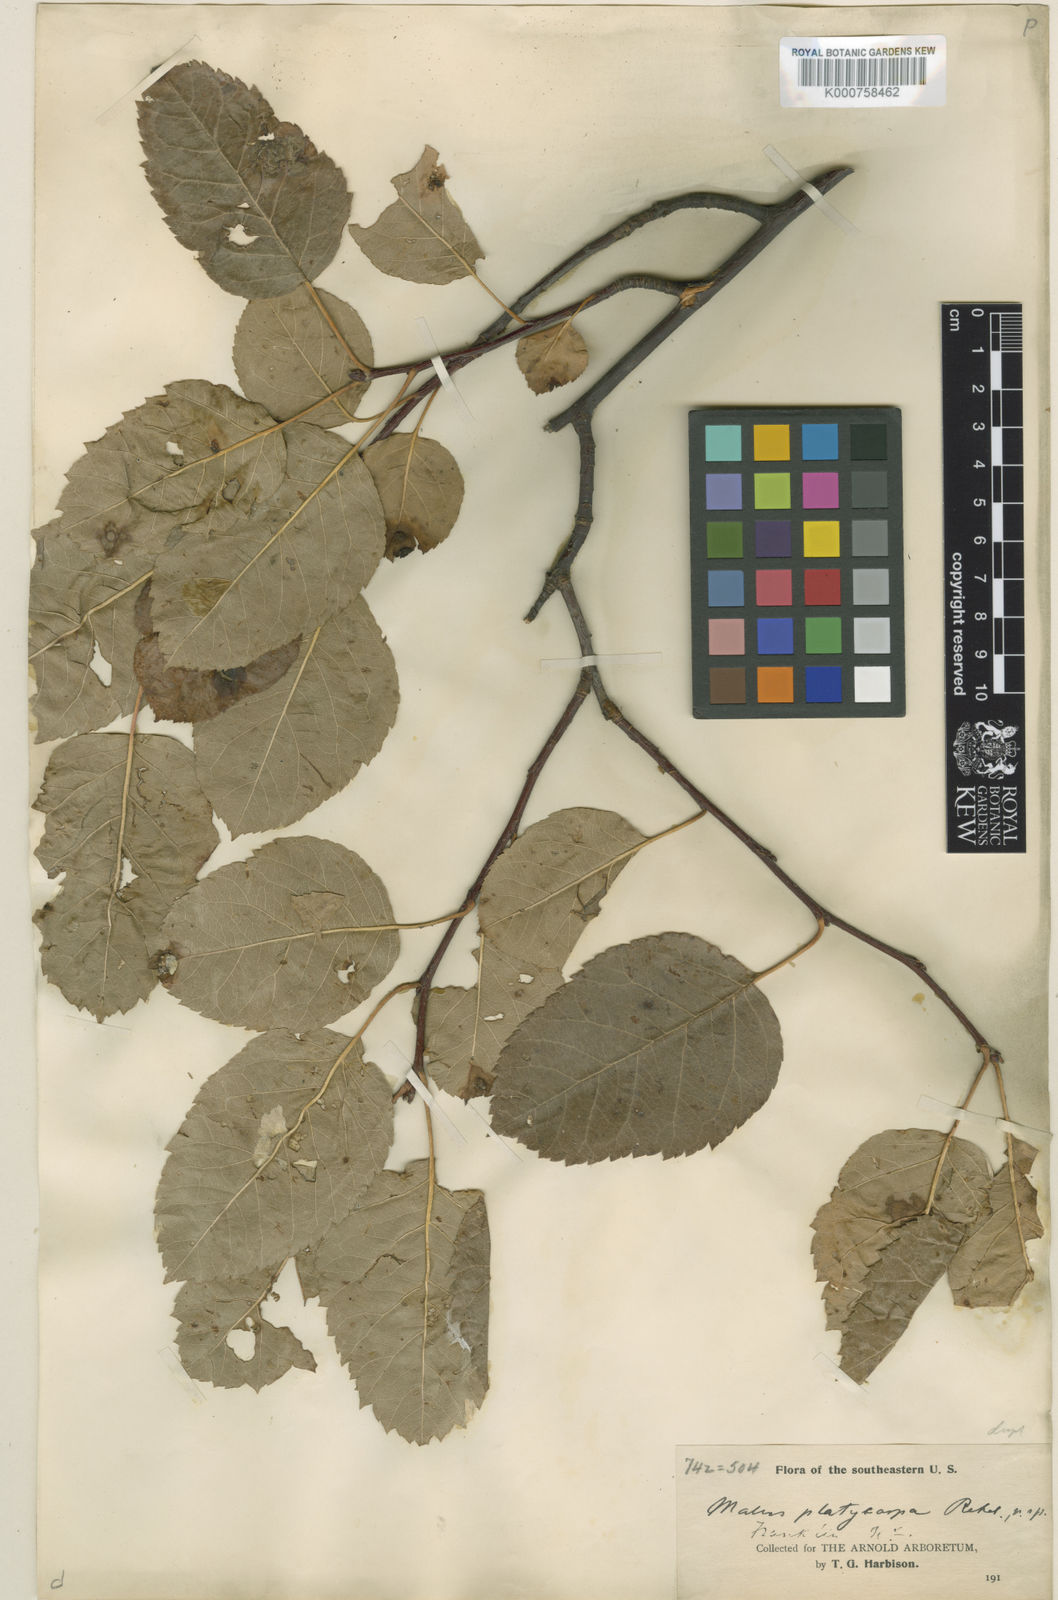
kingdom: Plantae
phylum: Tracheophyta
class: Magnoliopsida
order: Rosales
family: Rosaceae
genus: Malus
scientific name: Malus platycarpa
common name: Bigfruit crab
